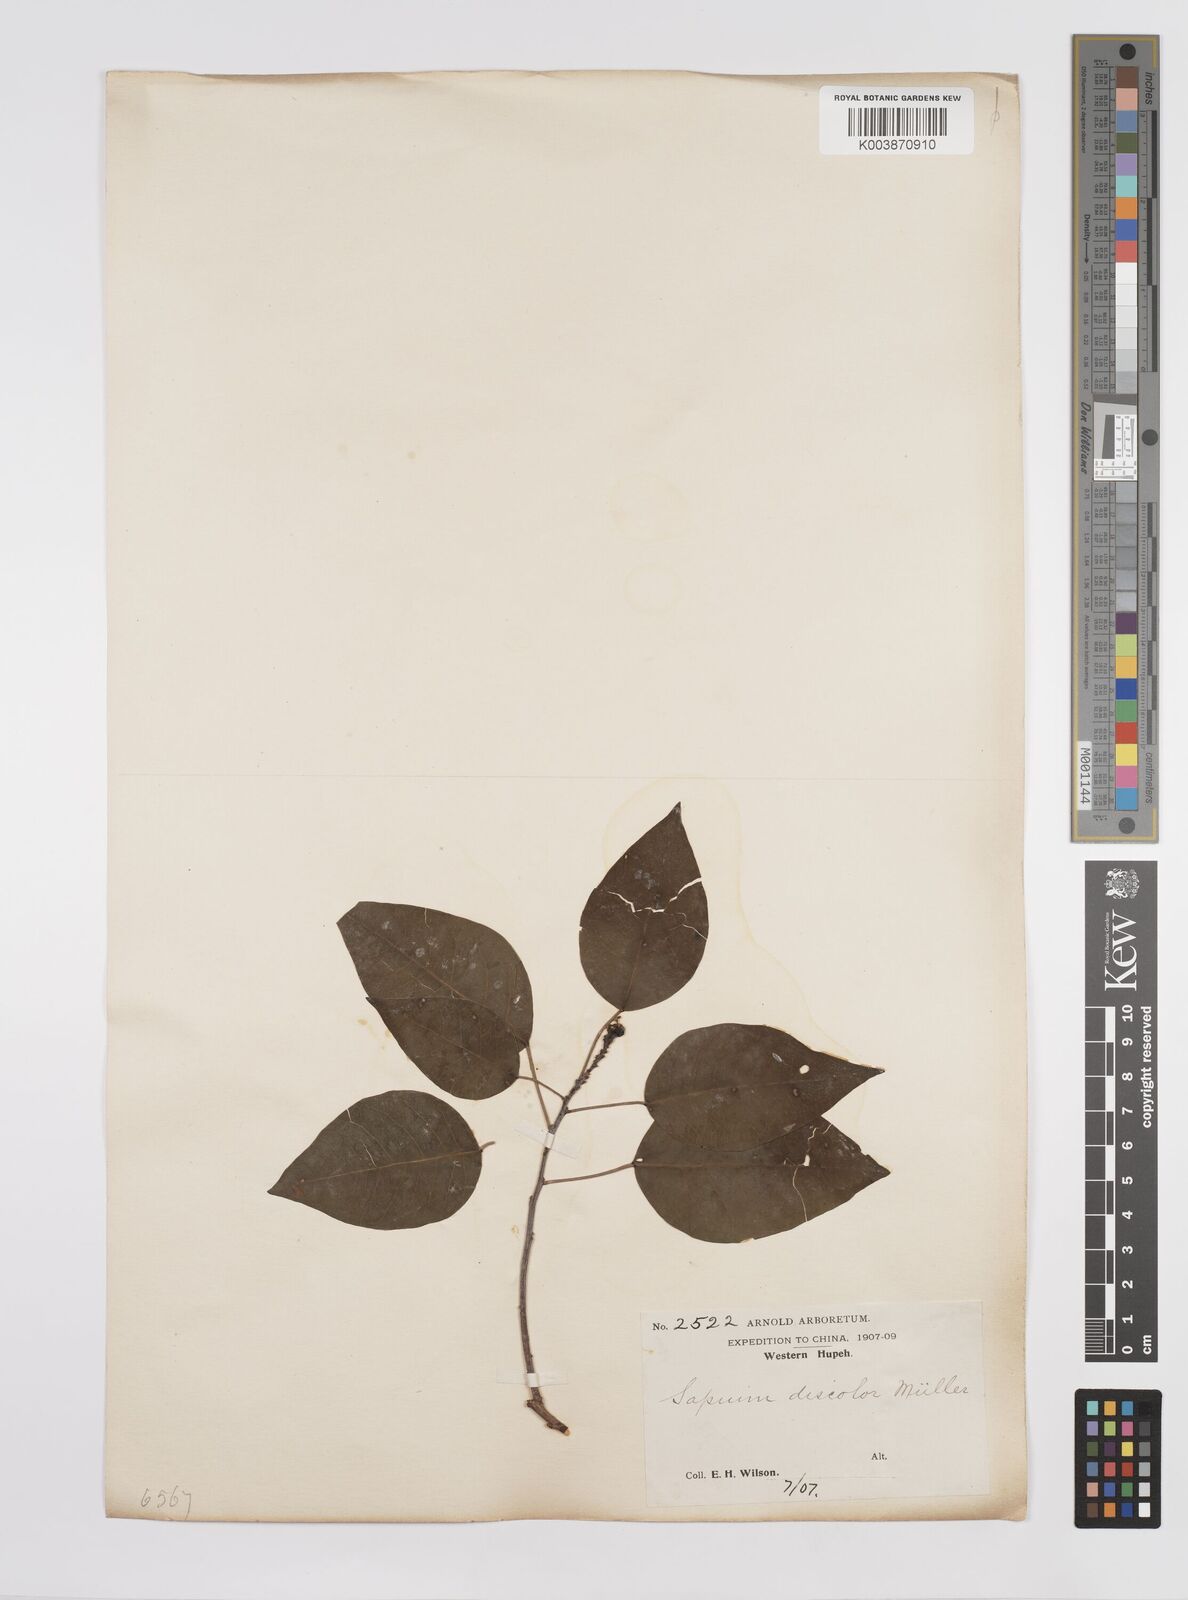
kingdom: Plantae
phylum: Tracheophyta
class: Magnoliopsida
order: Malpighiales
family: Euphorbiaceae
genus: Triadica
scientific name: Triadica cochinchinensis
